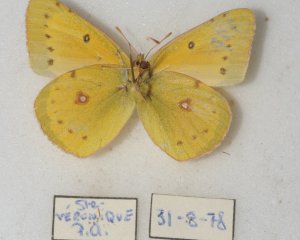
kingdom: Animalia
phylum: Arthropoda
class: Insecta
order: Lepidoptera
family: Pieridae
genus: Colias
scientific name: Colias eurytheme
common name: Orange Sulphur
